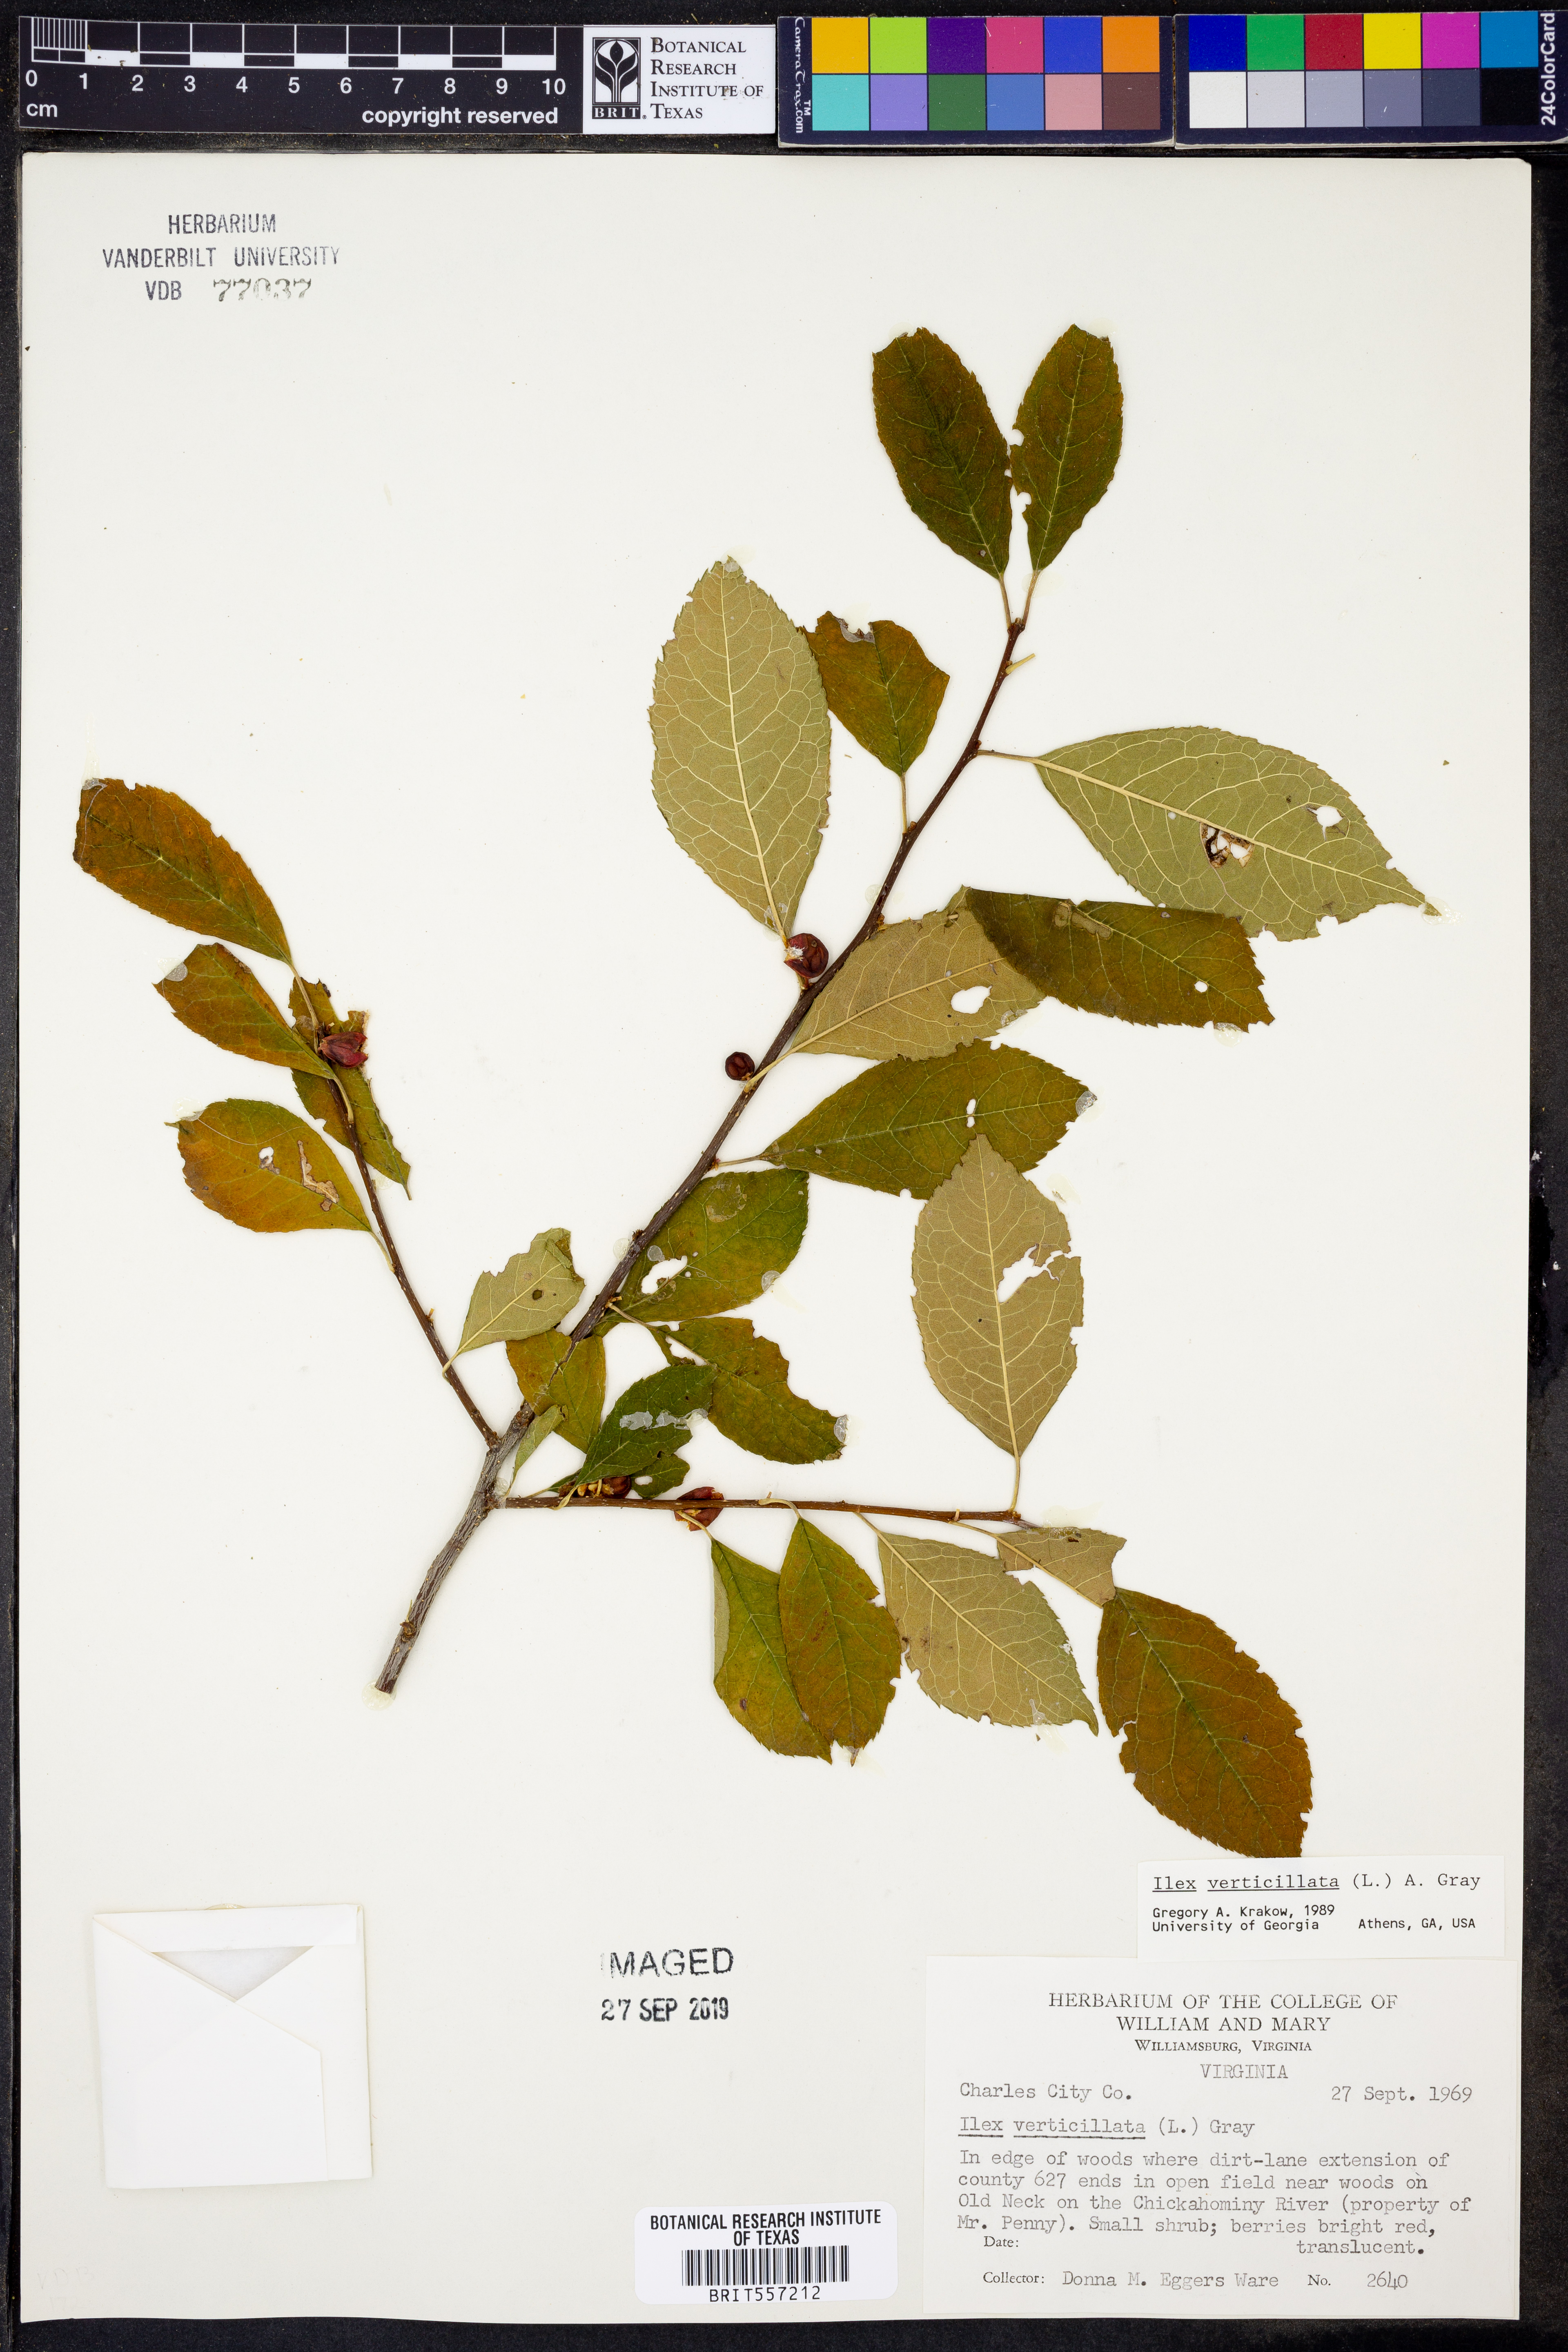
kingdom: Plantae
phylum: Tracheophyta
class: Magnoliopsida
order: Aquifoliales
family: Aquifoliaceae
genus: Ilex
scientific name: Ilex verticillata
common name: Virginia winterberry
